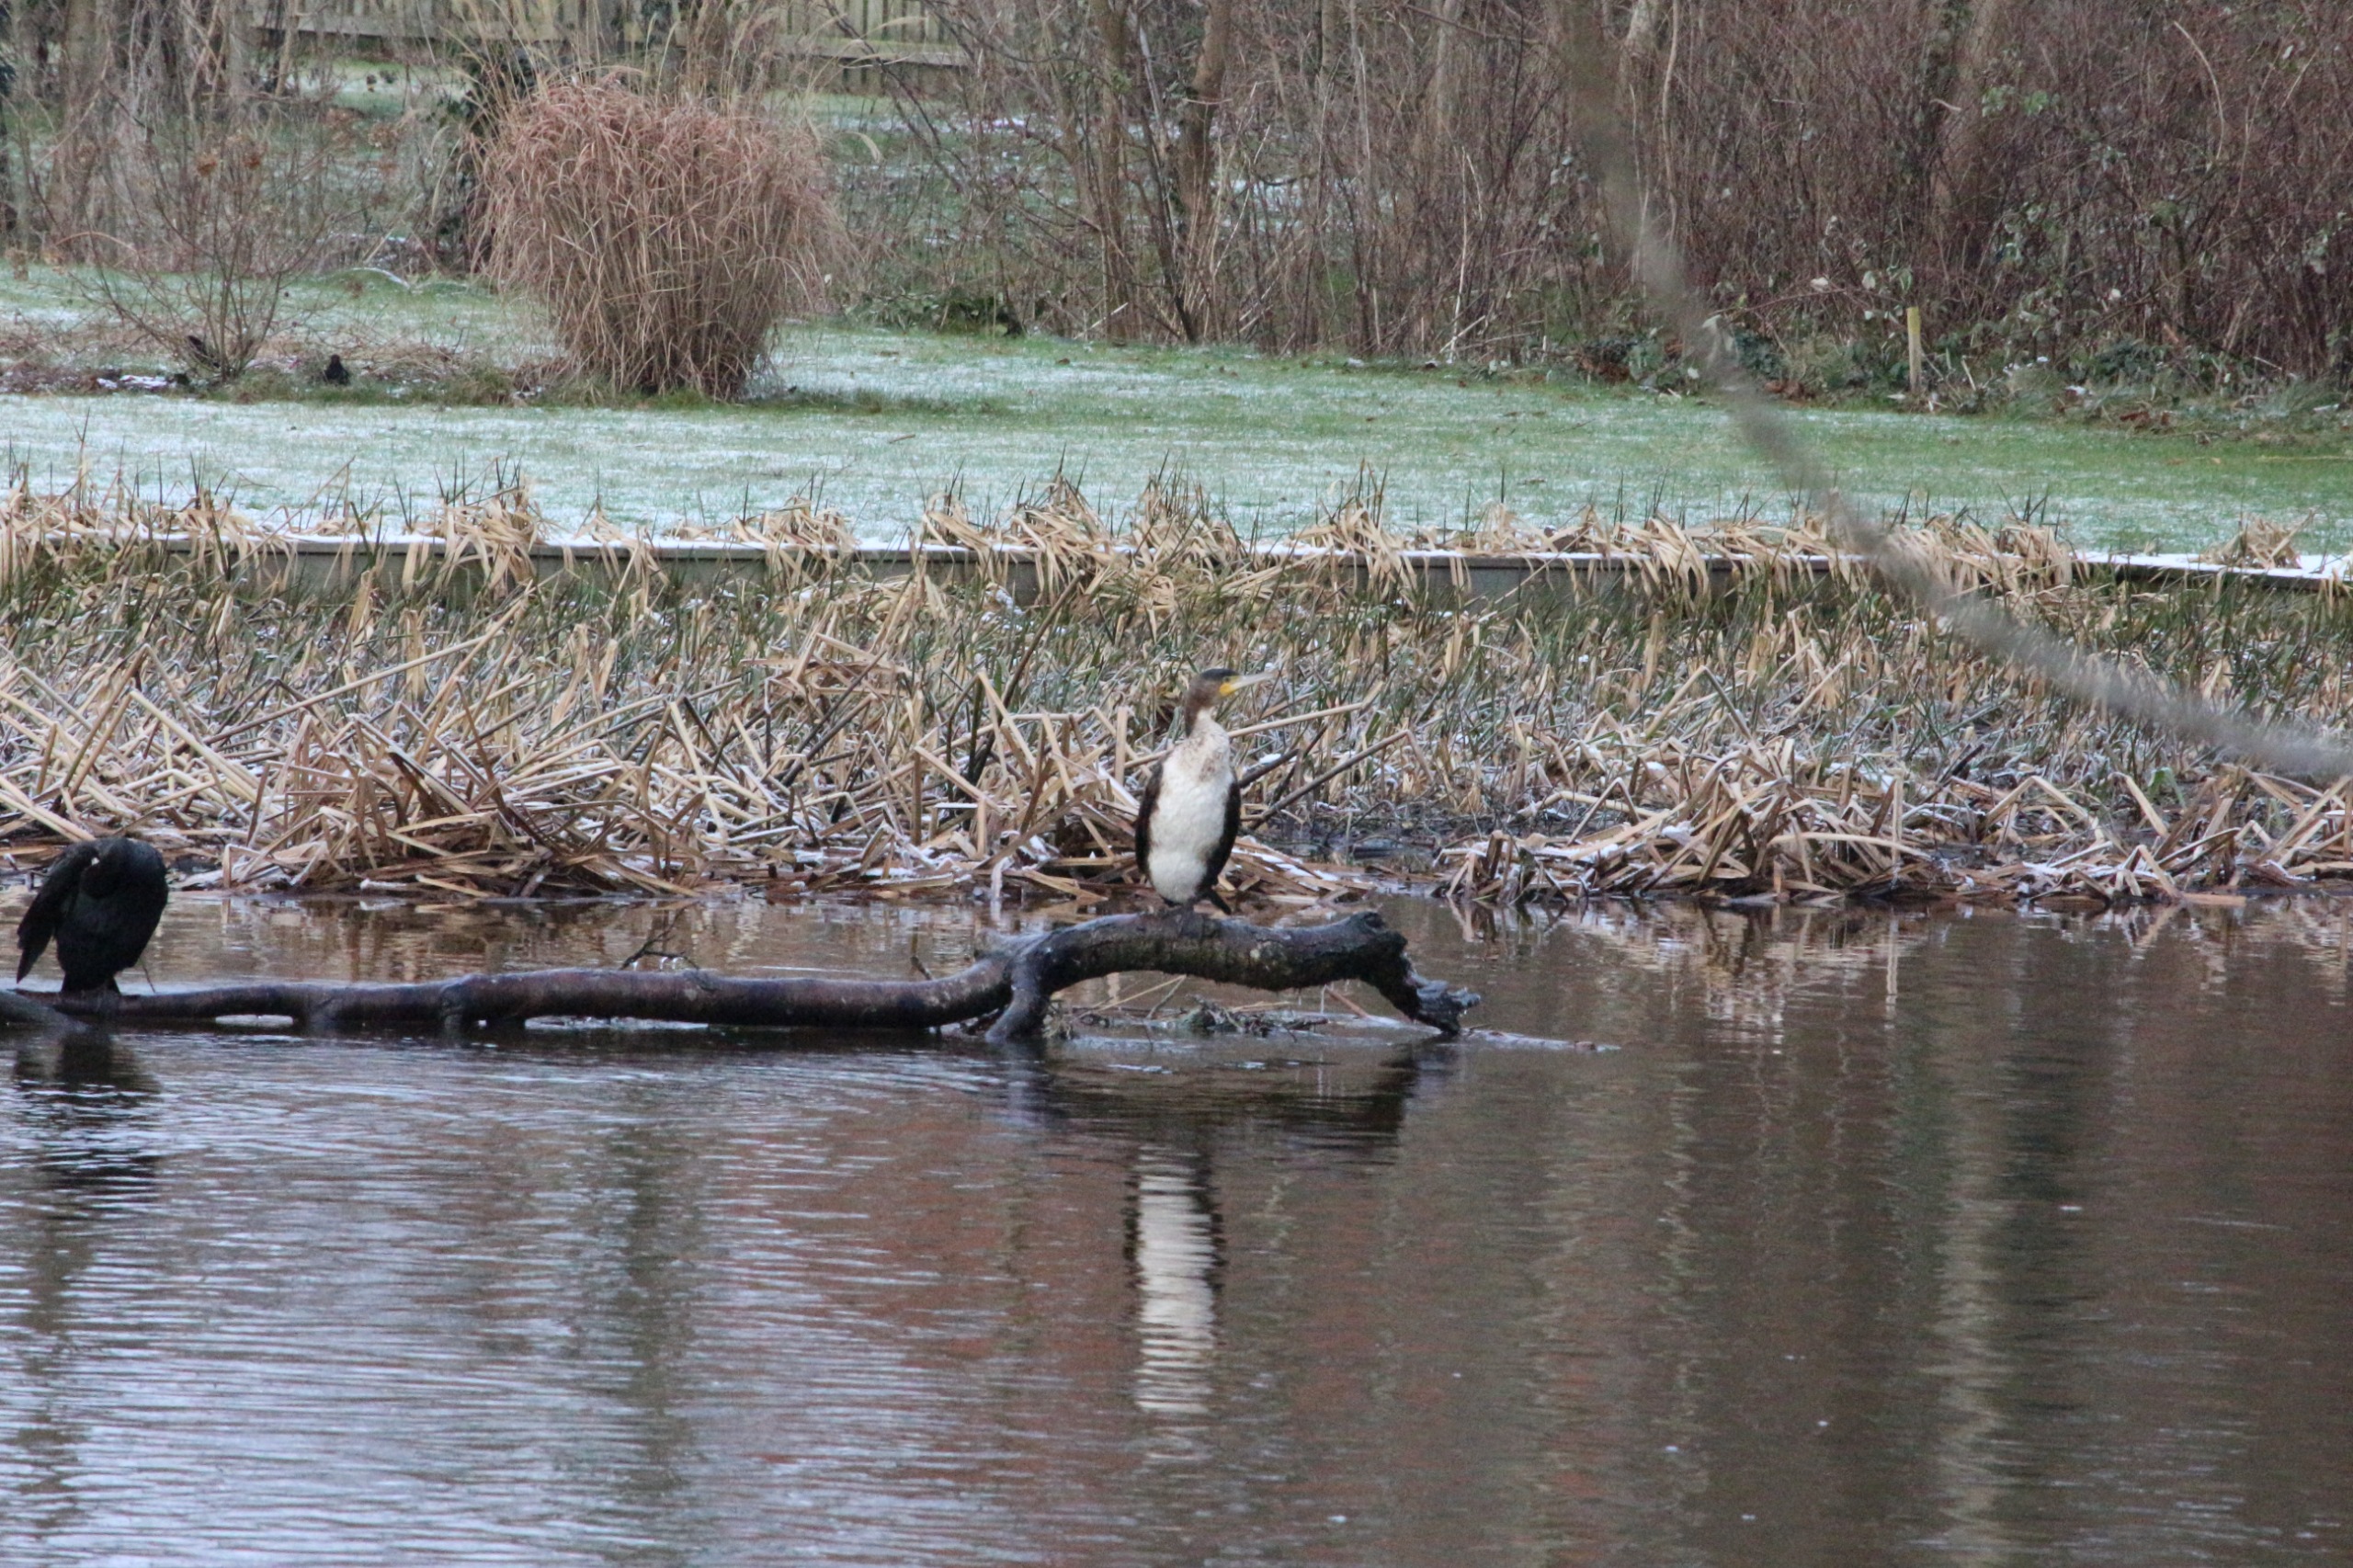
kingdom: Animalia
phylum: Chordata
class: Aves
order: Suliformes
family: Phalacrocoracidae
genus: Phalacrocorax
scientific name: Phalacrocorax carbo
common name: Skarv
